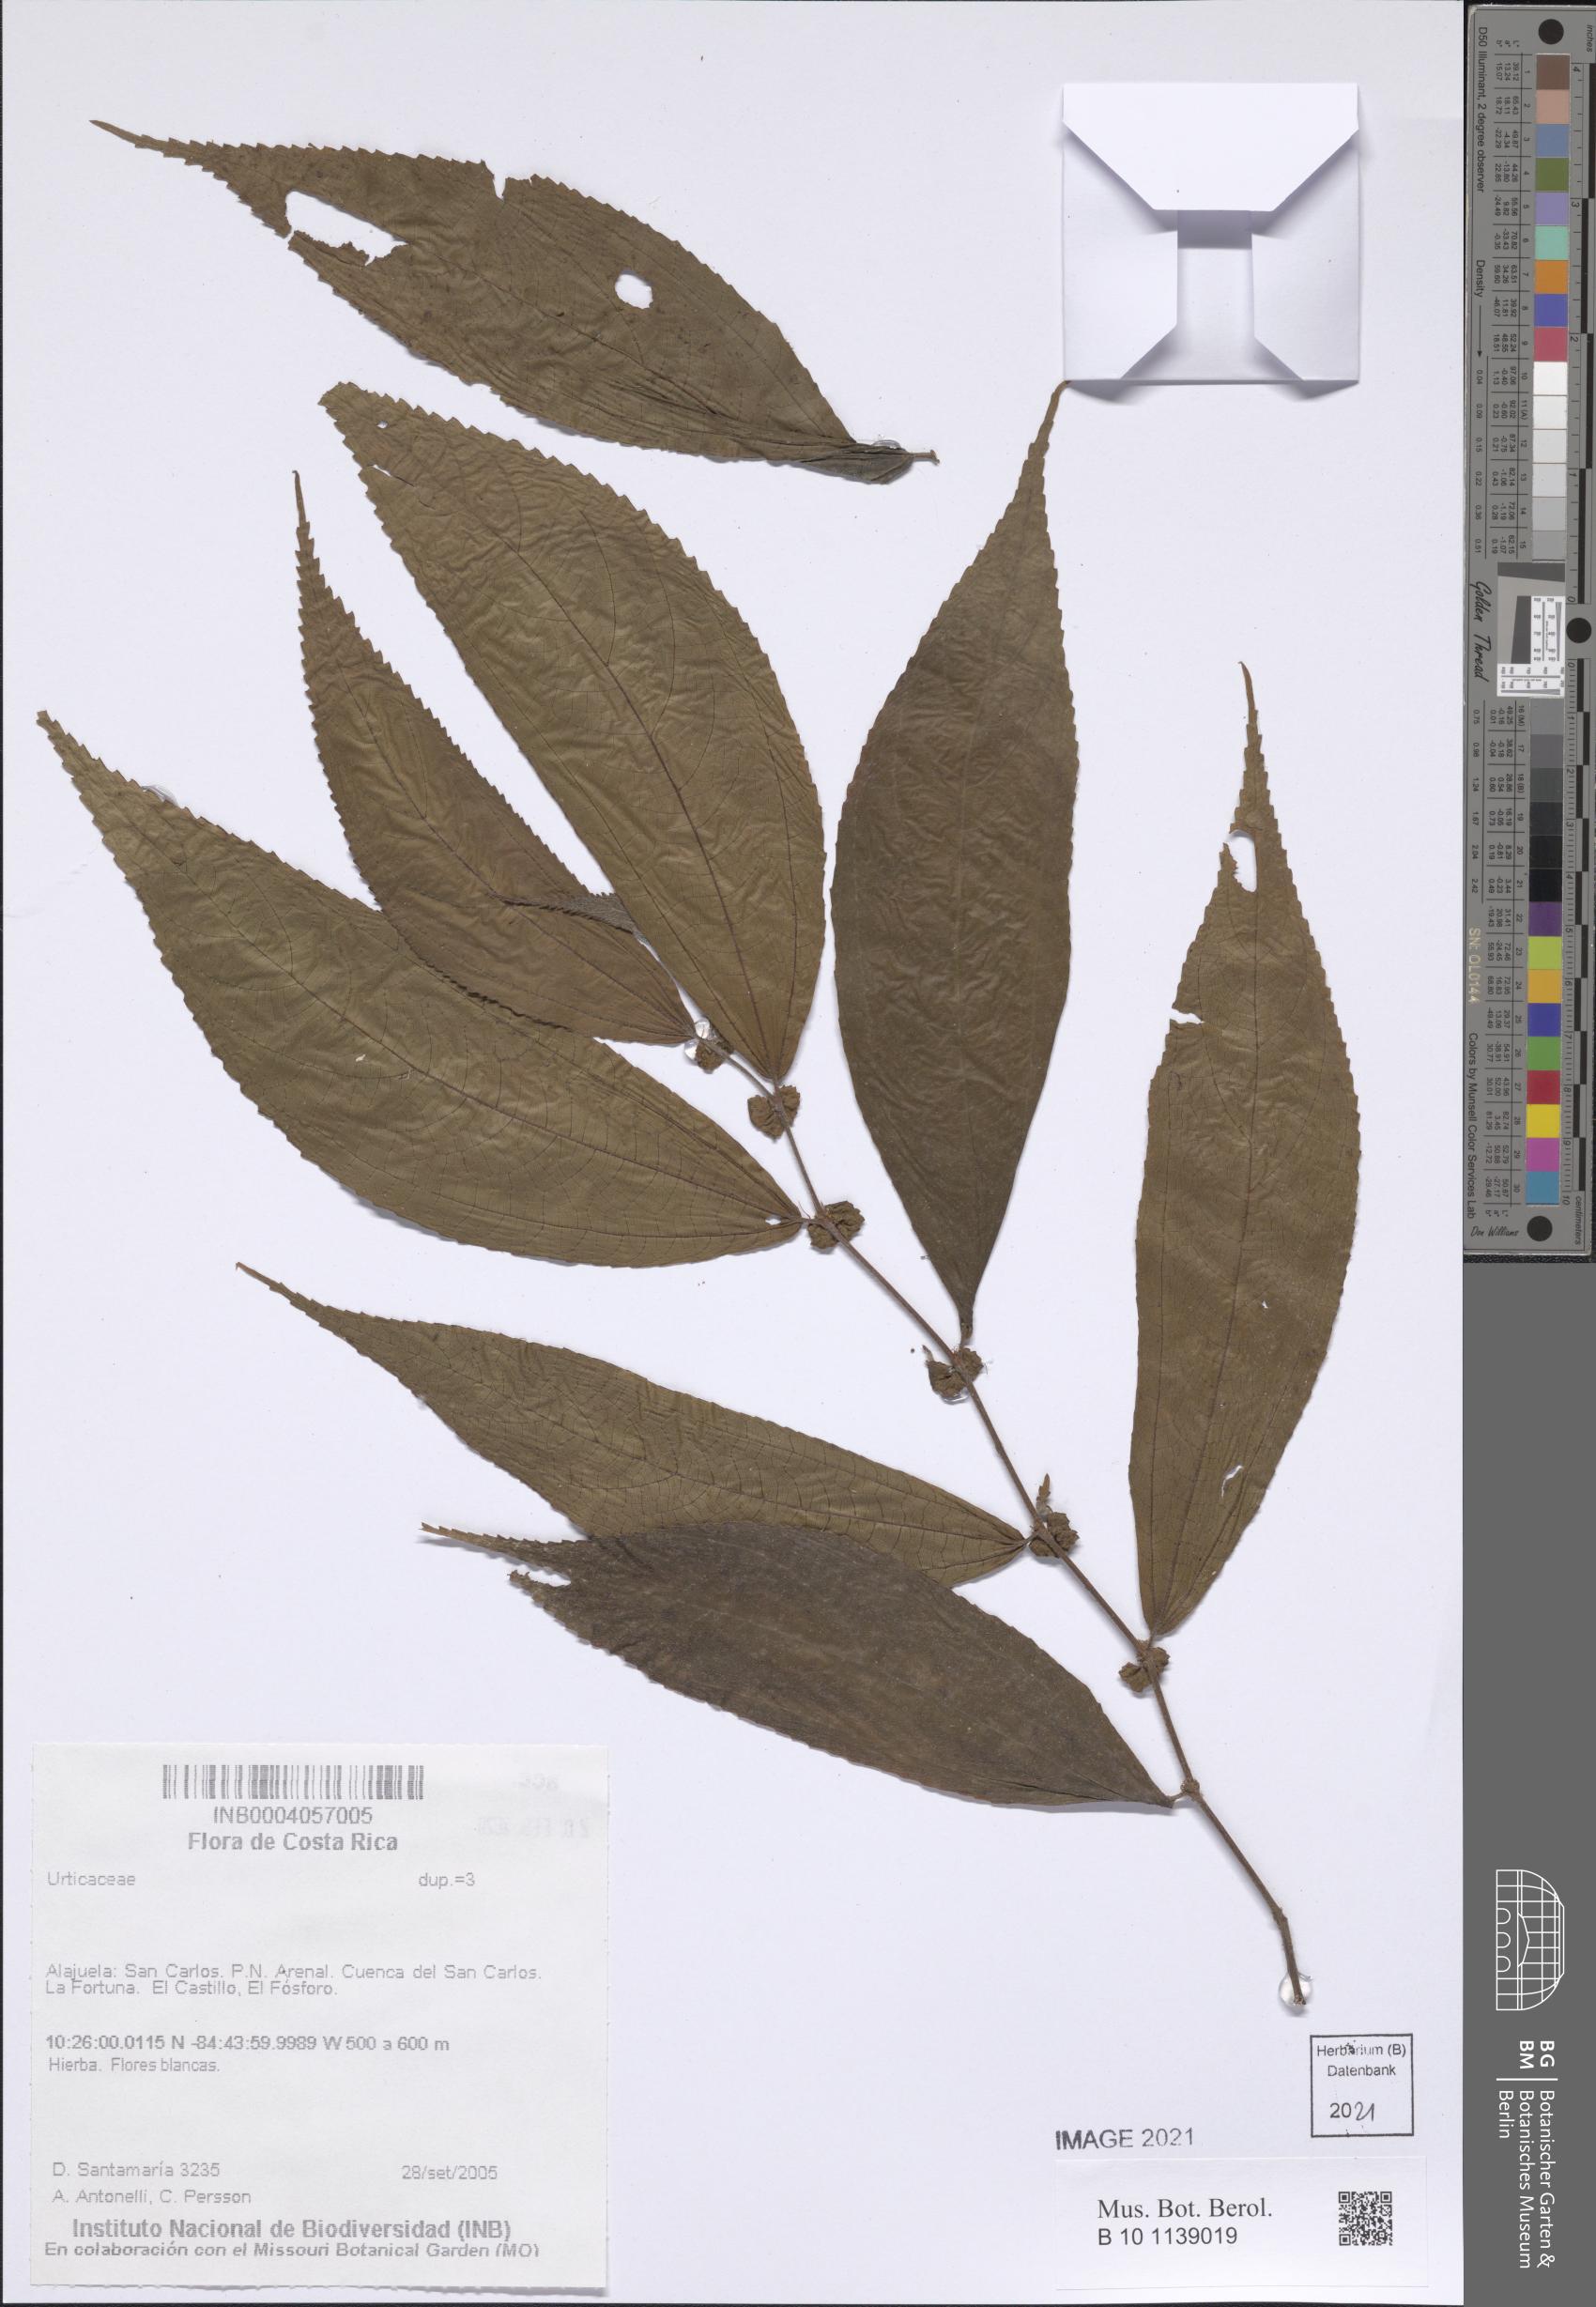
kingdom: Plantae
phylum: Tracheophyta
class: Magnoliopsida
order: Rosales
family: Urticaceae
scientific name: Urticaceae
